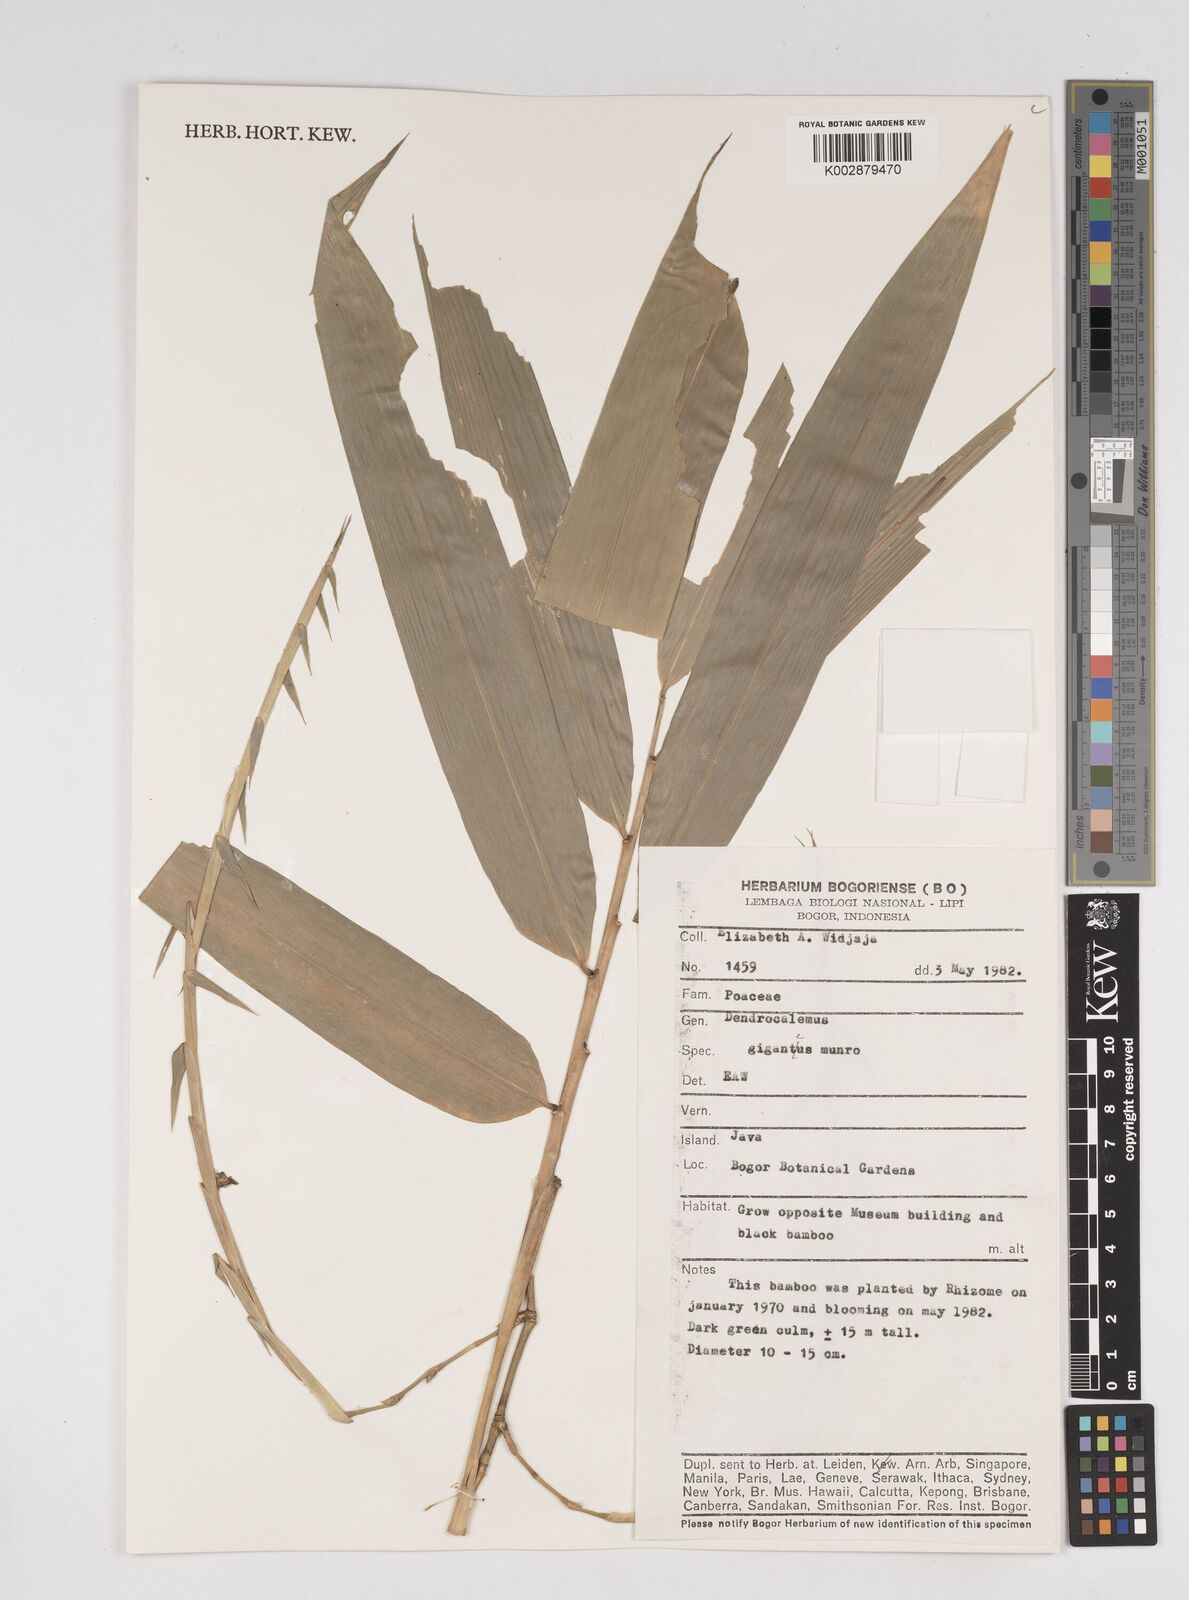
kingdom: Plantae
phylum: Tracheophyta
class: Liliopsida
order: Poales
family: Poaceae
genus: Dendrocalamus
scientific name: Dendrocalamus giganteus
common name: Giant bamboo
